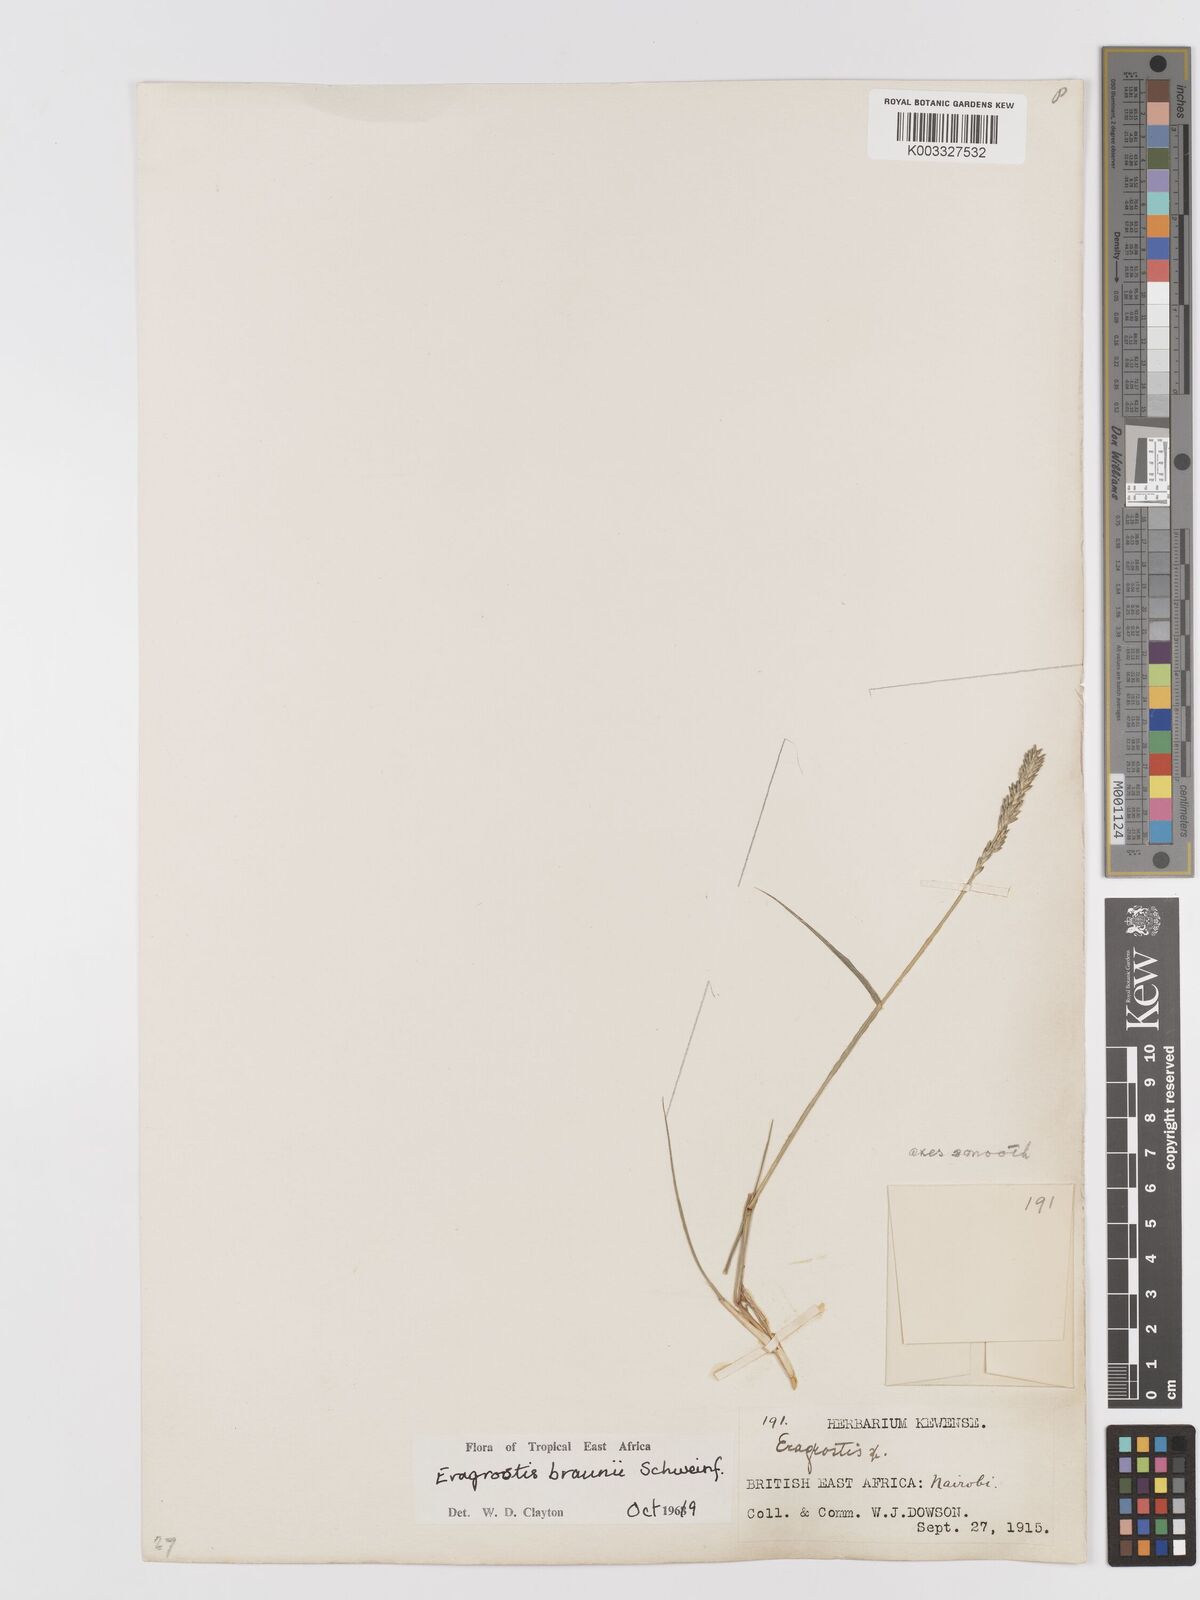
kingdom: Plantae
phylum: Tracheophyta
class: Liliopsida
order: Poales
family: Poaceae
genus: Eragrostis
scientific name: Eragrostis braunii
